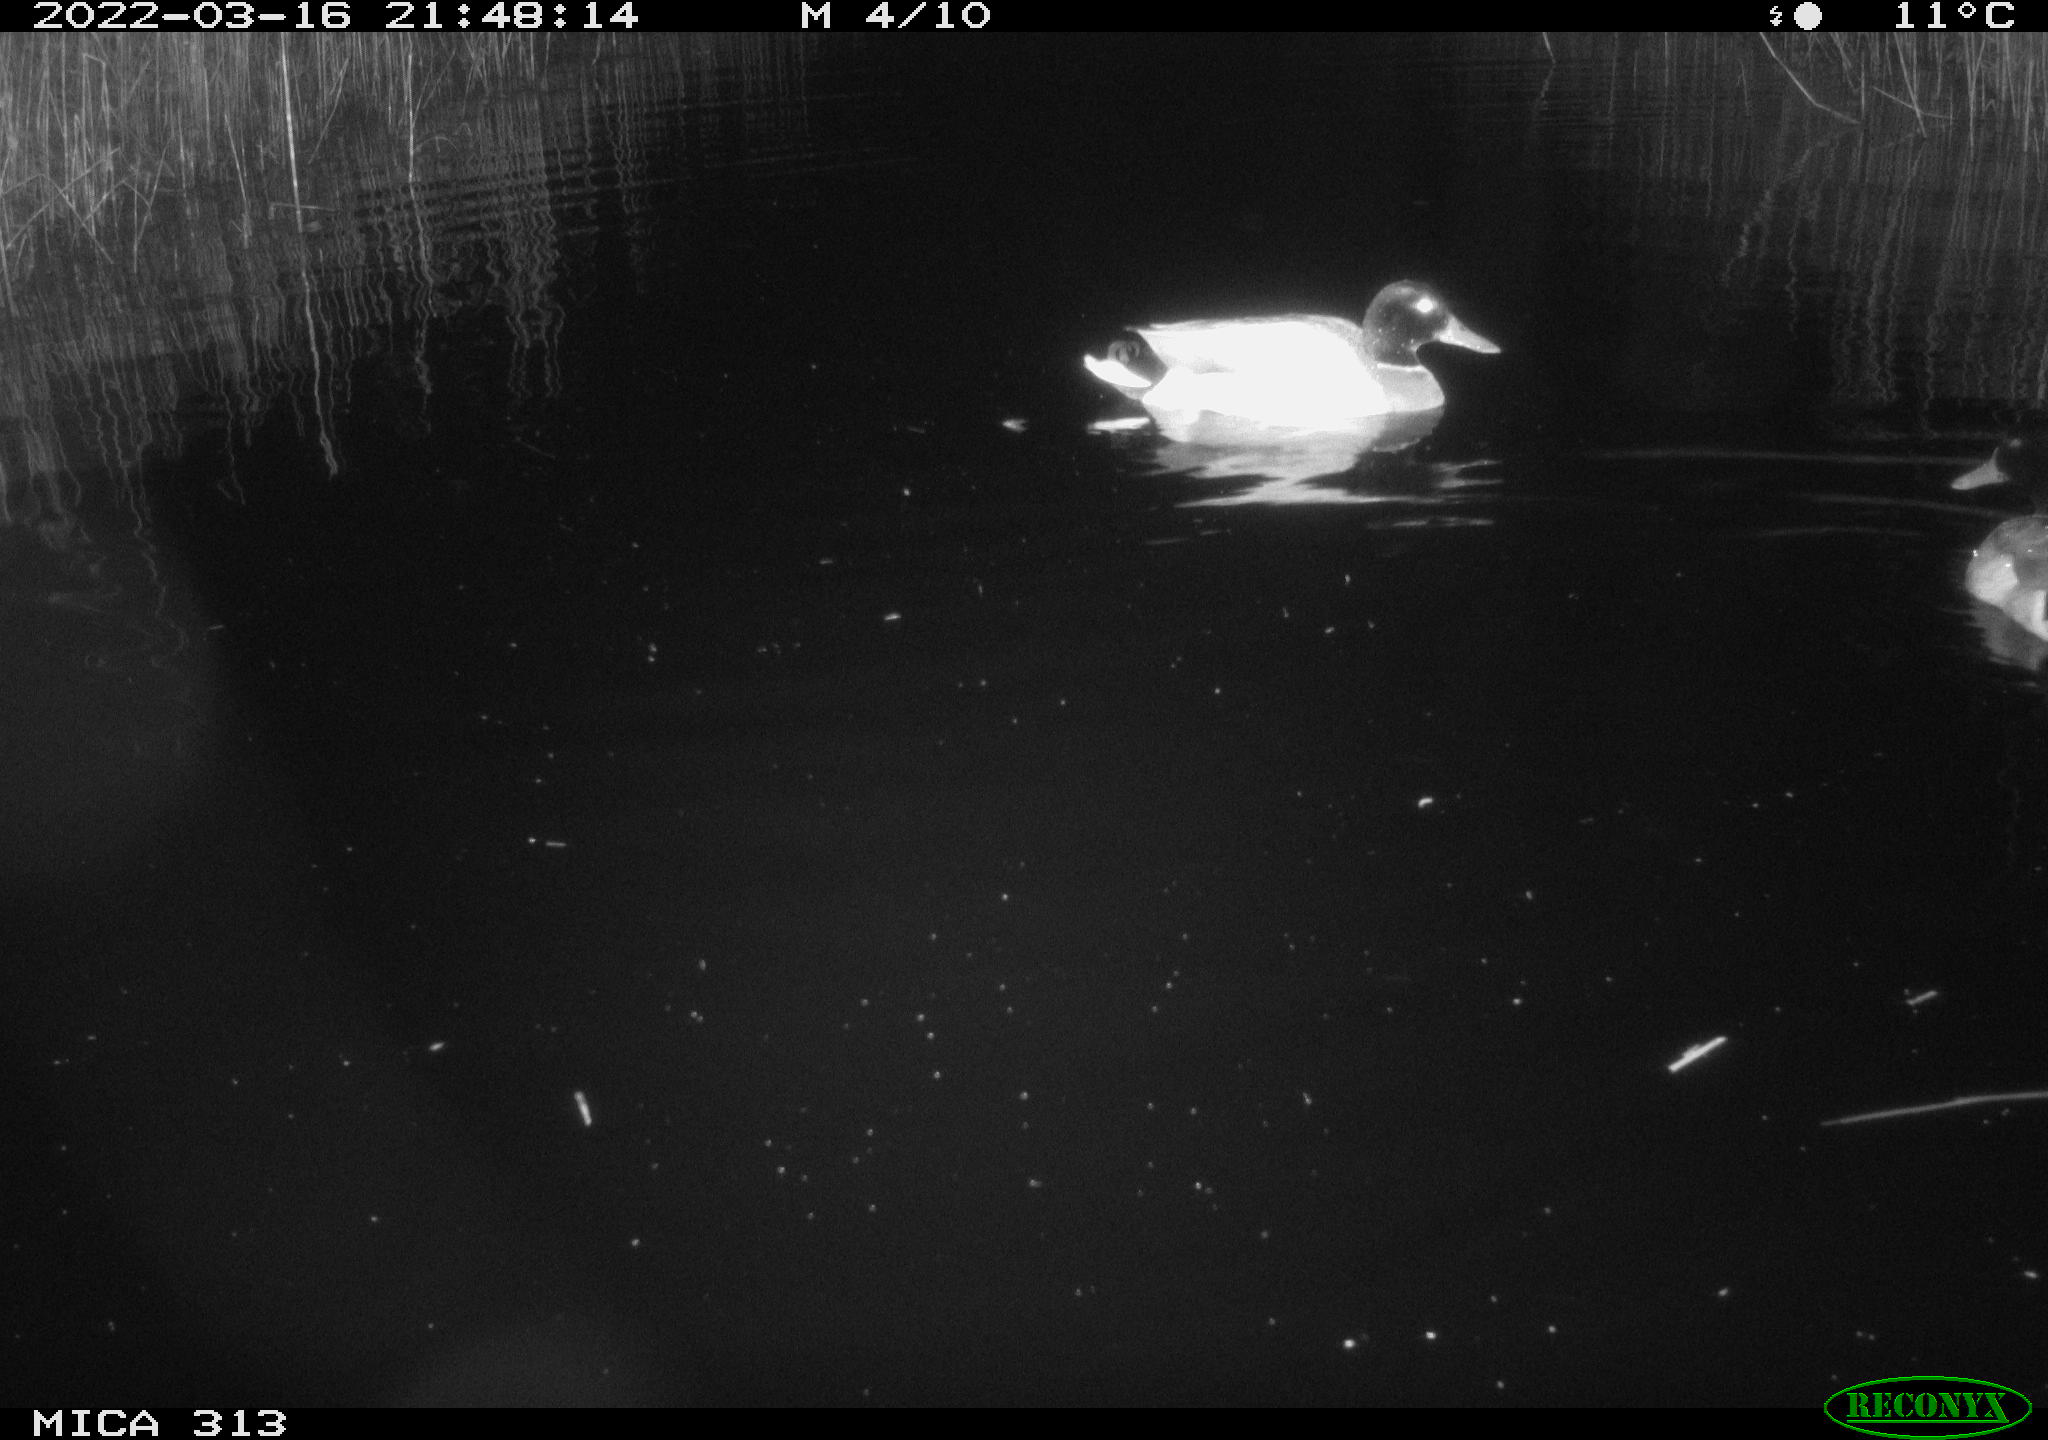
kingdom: Animalia
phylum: Chordata
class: Aves
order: Anseriformes
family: Anatidae
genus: Anas
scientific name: Anas platyrhynchos
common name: Mallard
